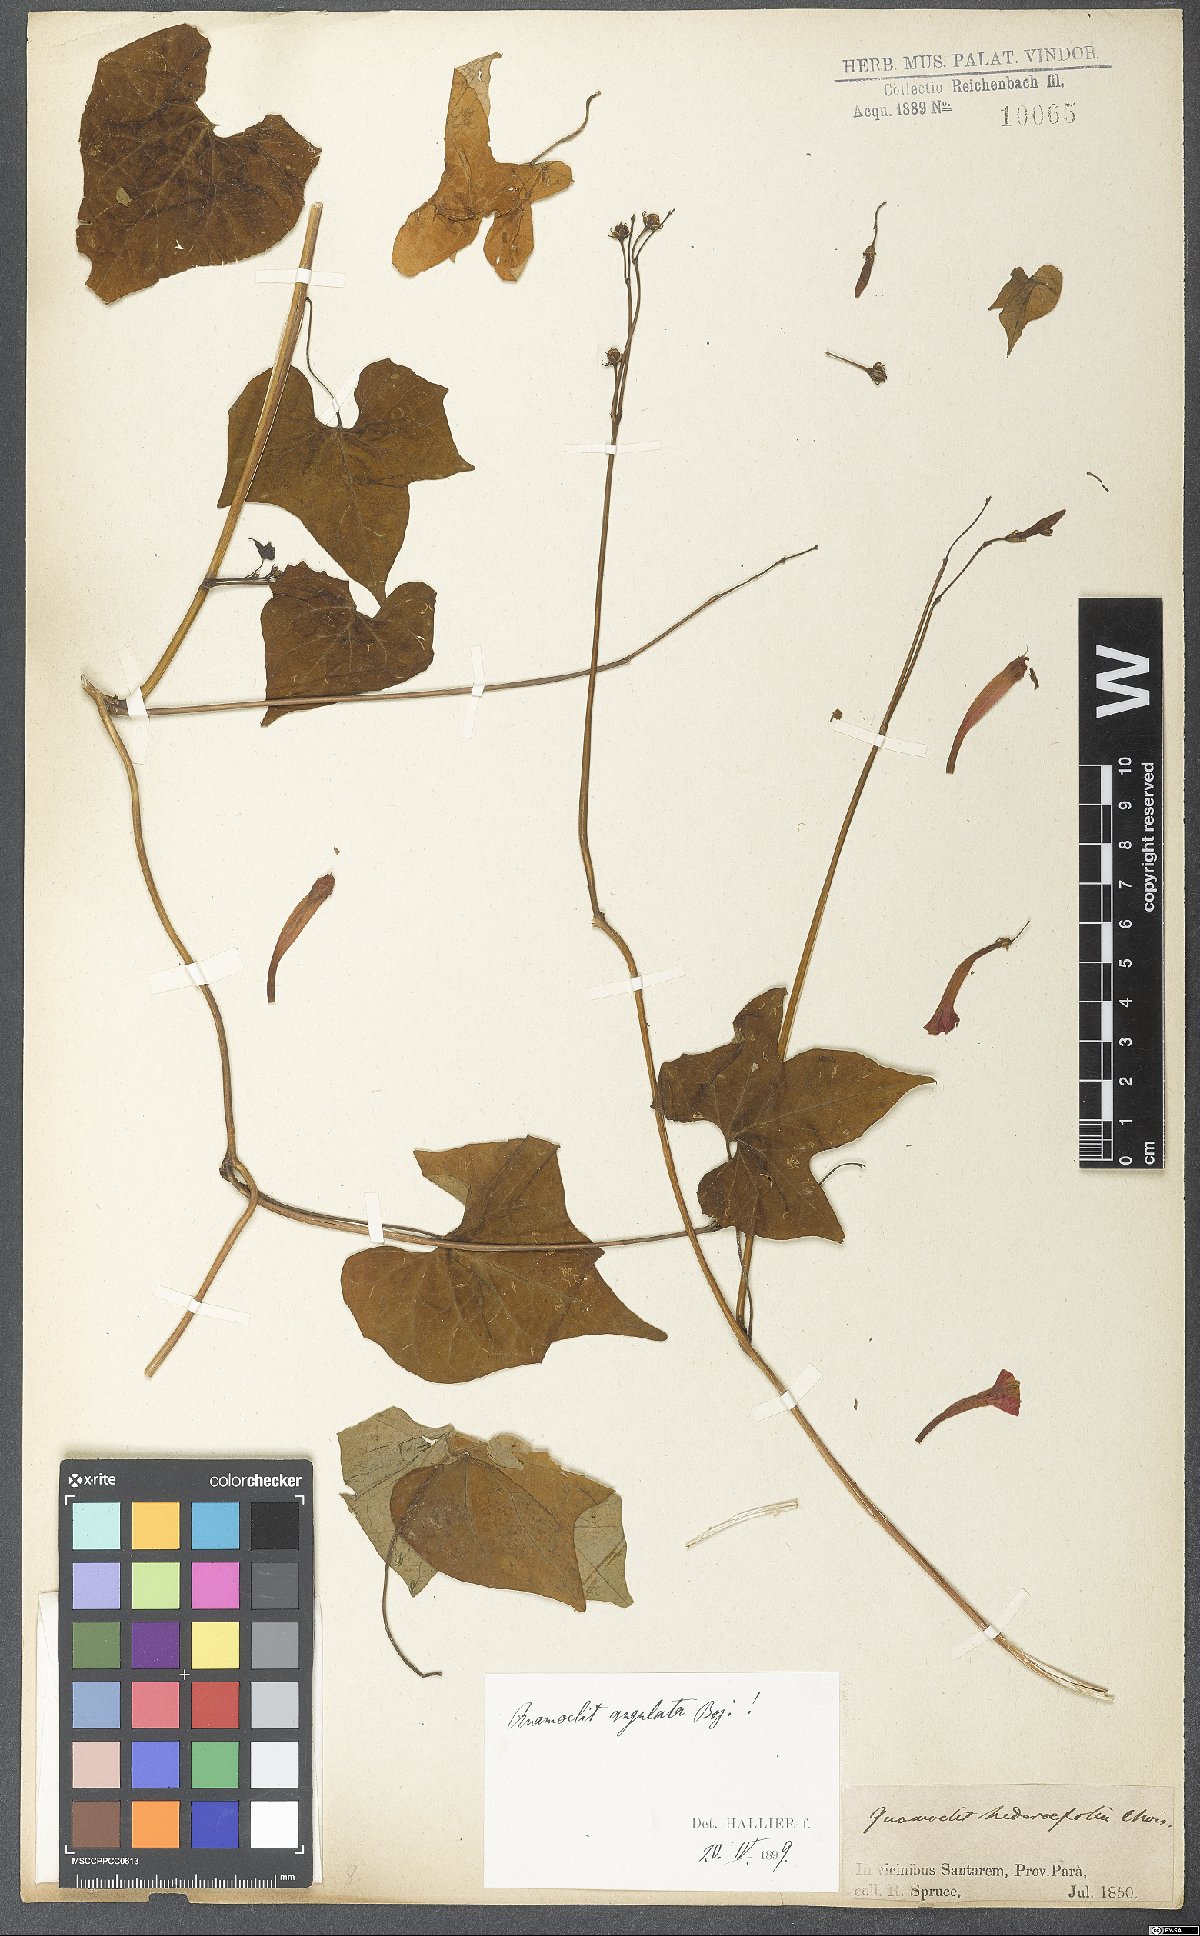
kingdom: Plantae
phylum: Tracheophyta
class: Magnoliopsida
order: Solanales
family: Convolvulaceae
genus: Ipomoea
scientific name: Ipomoea hederifolia
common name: Ivy-leaf morning-glory
